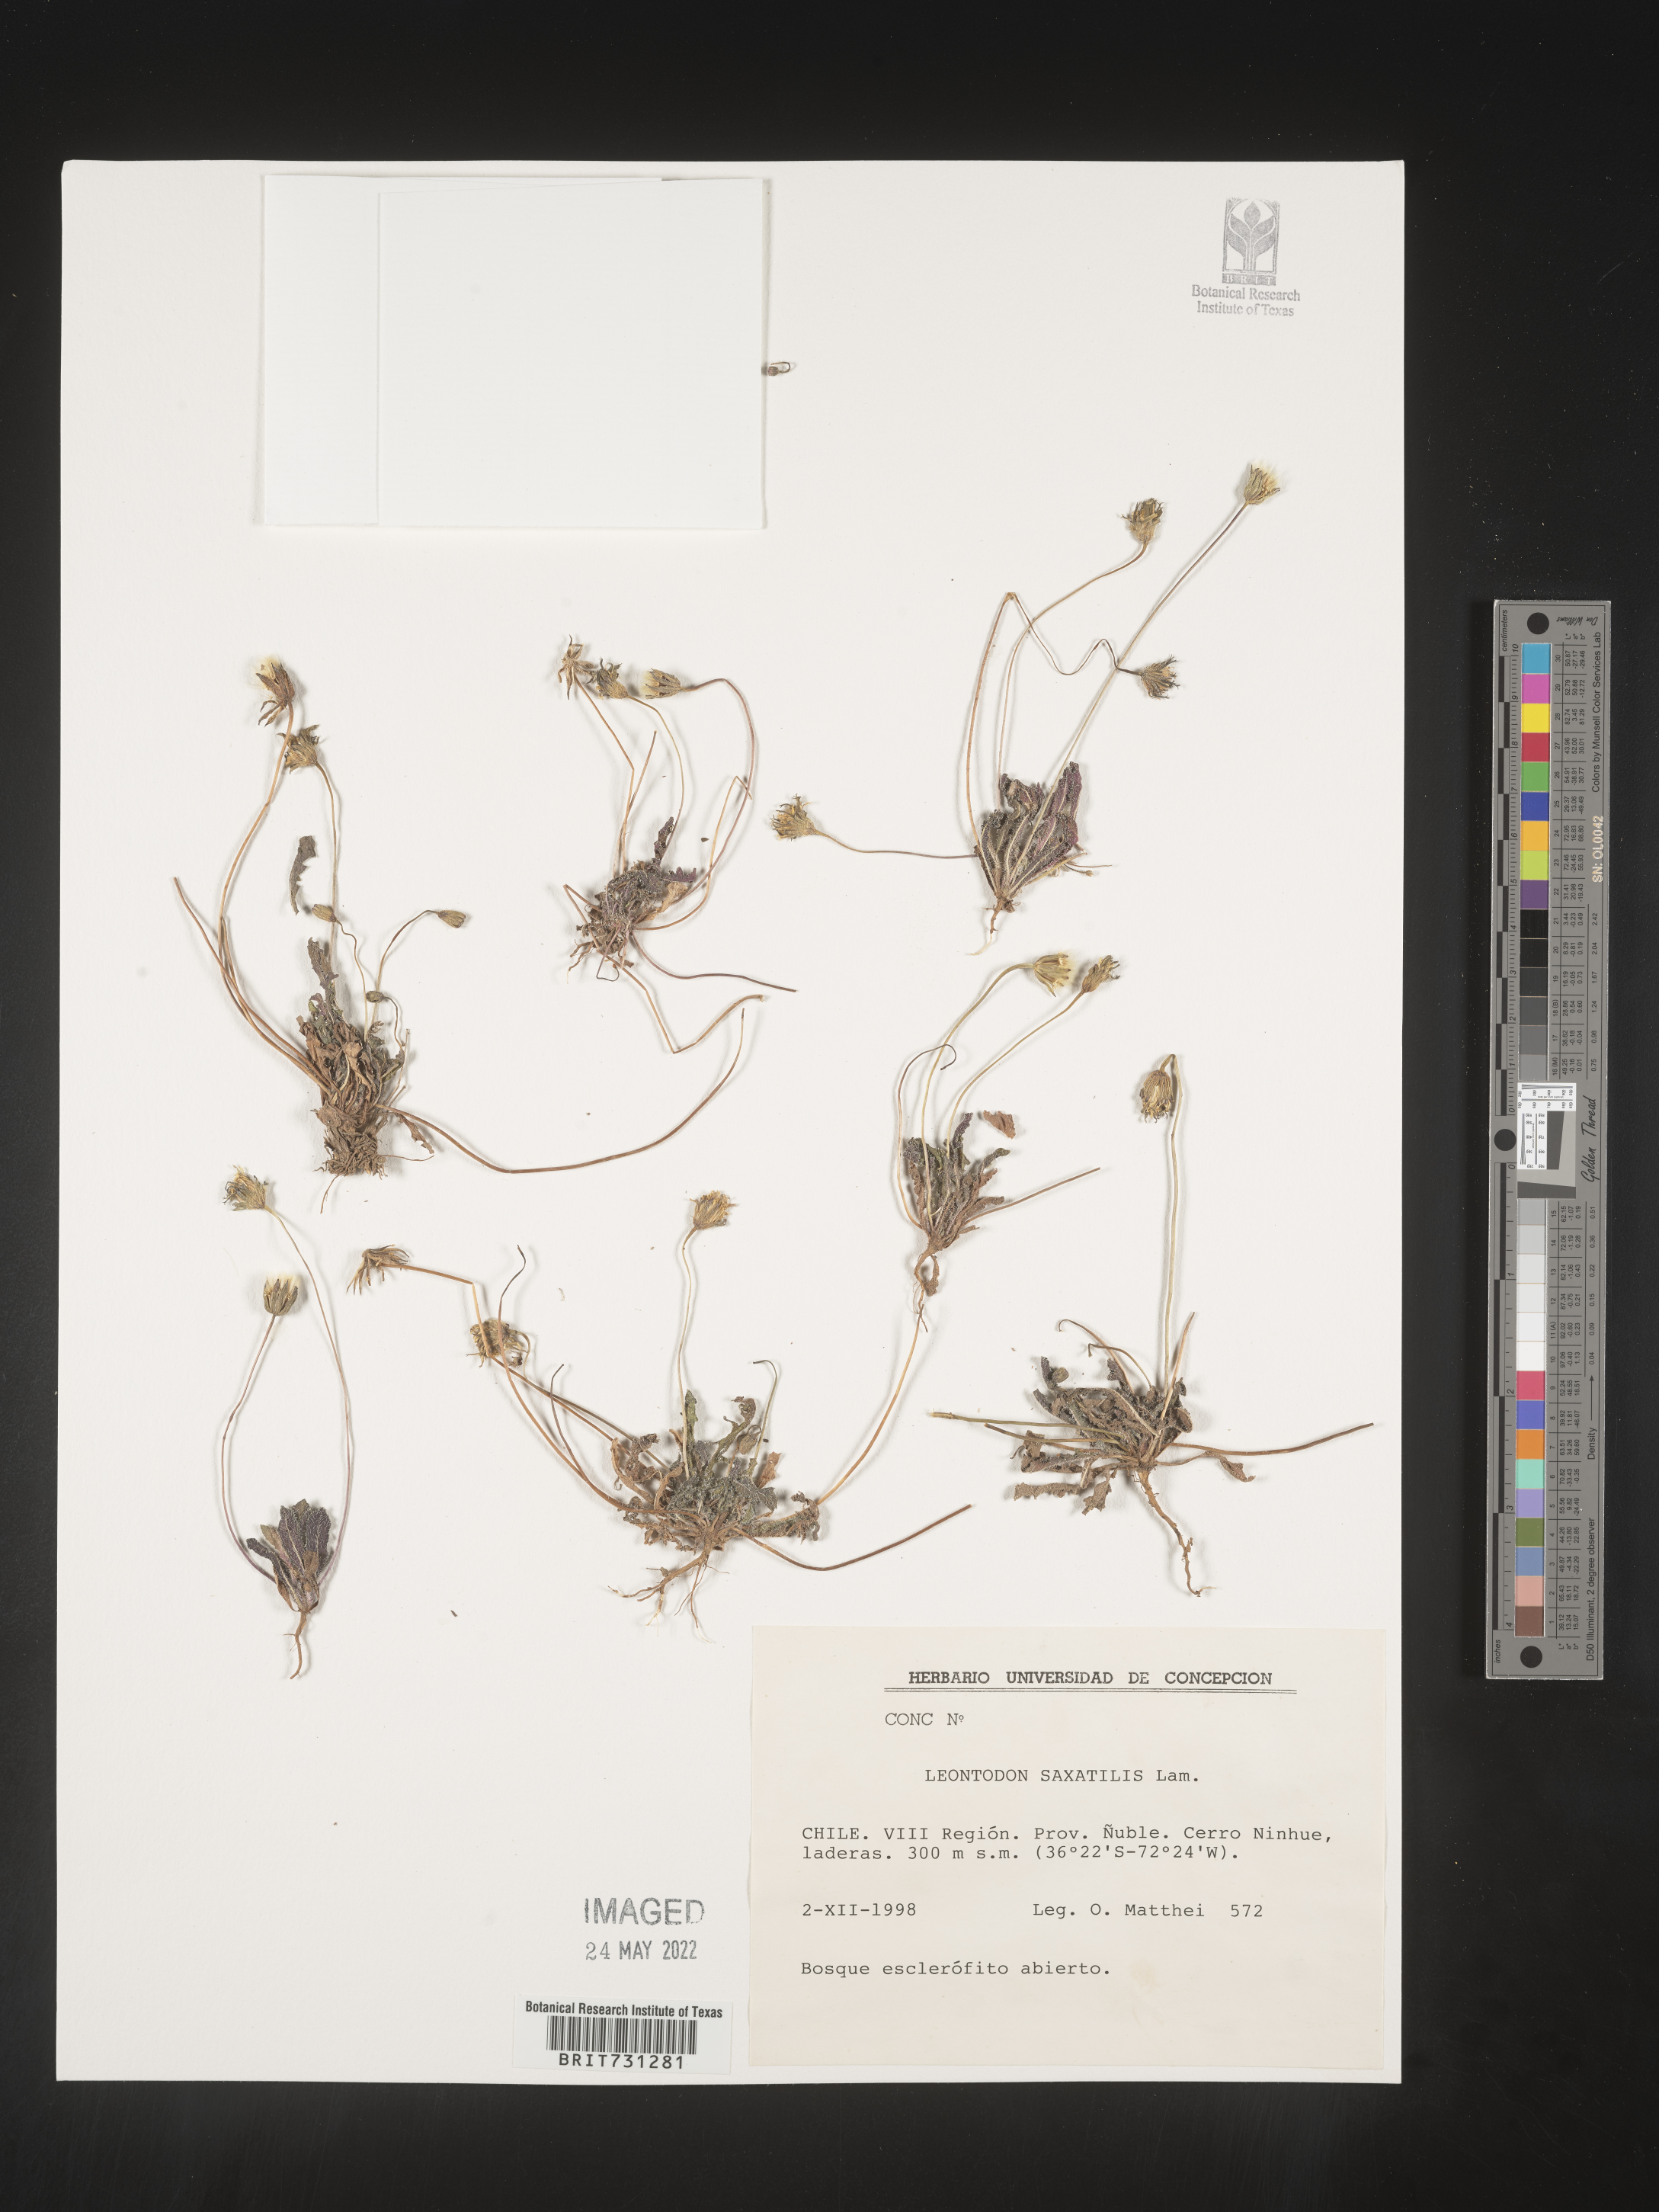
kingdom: Plantae
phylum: Tracheophyta
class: Magnoliopsida
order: Asterales
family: Asteraceae
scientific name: Asteraceae
